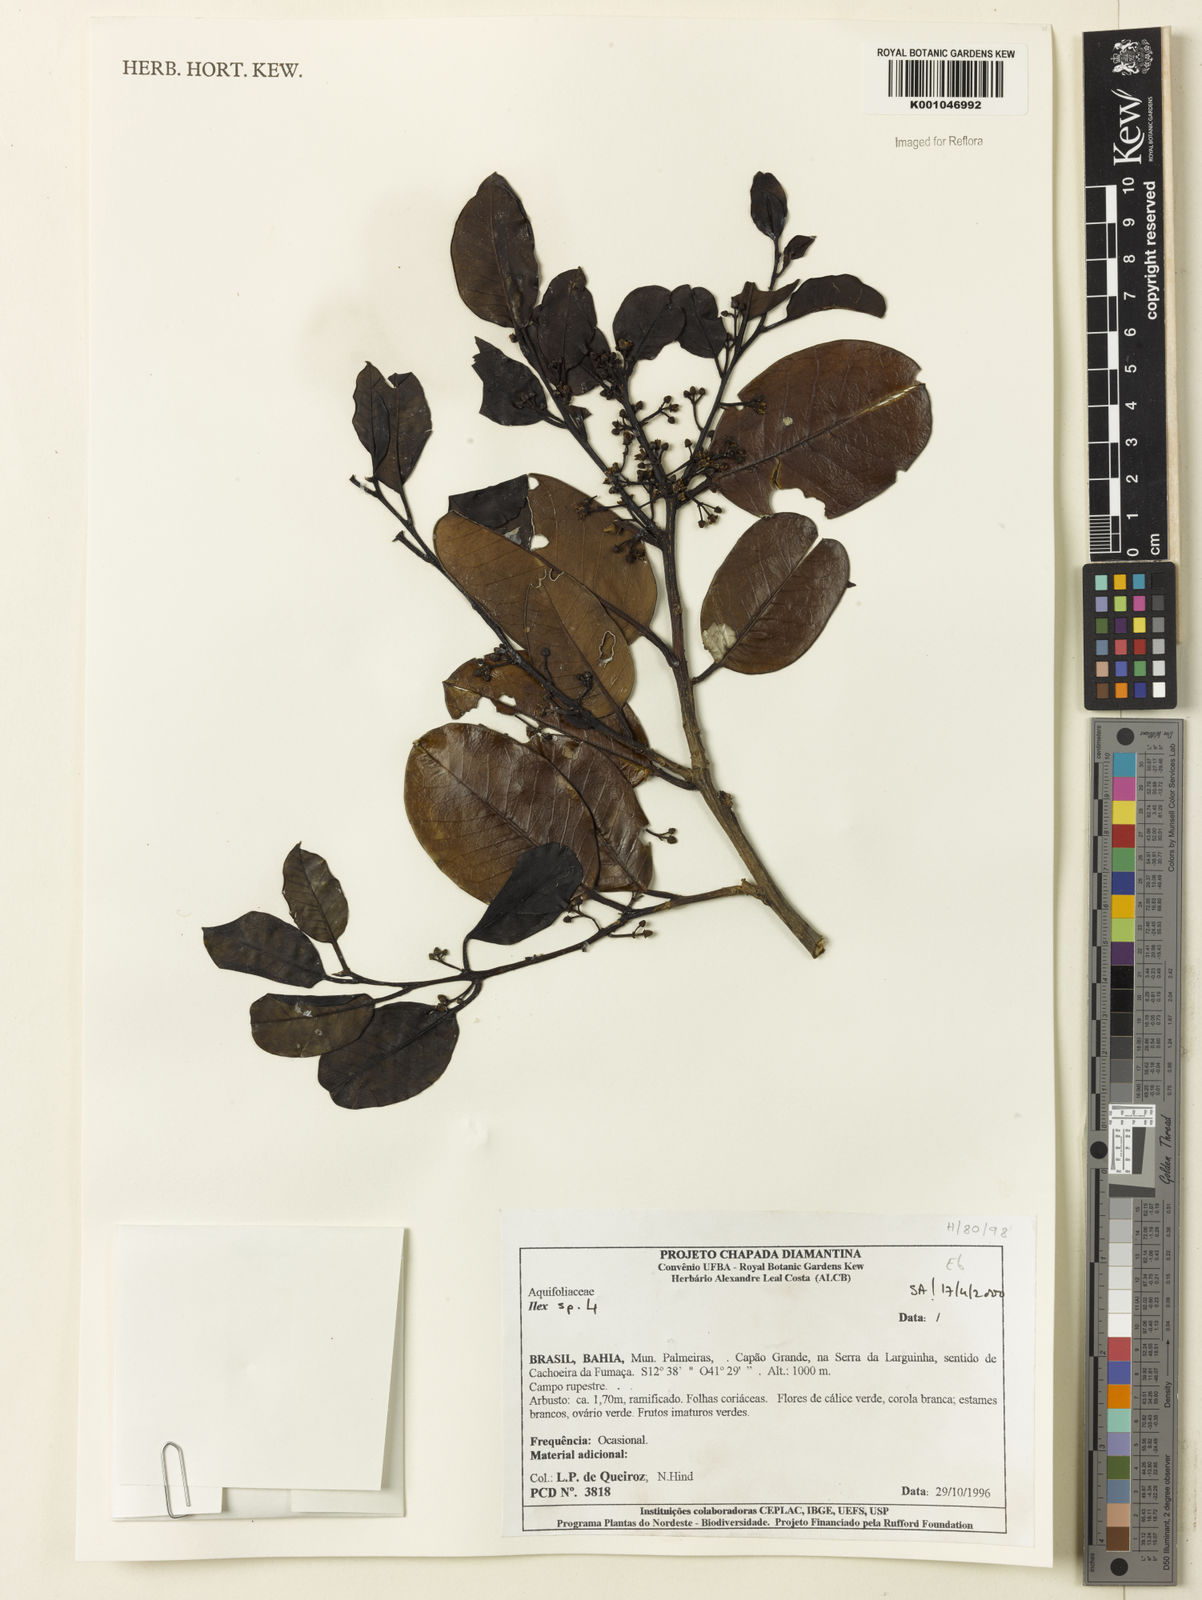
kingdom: Plantae
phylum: Tracheophyta
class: Magnoliopsida
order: Aquifoliales
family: Aquifoliaceae
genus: Ilex
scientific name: Ilex
